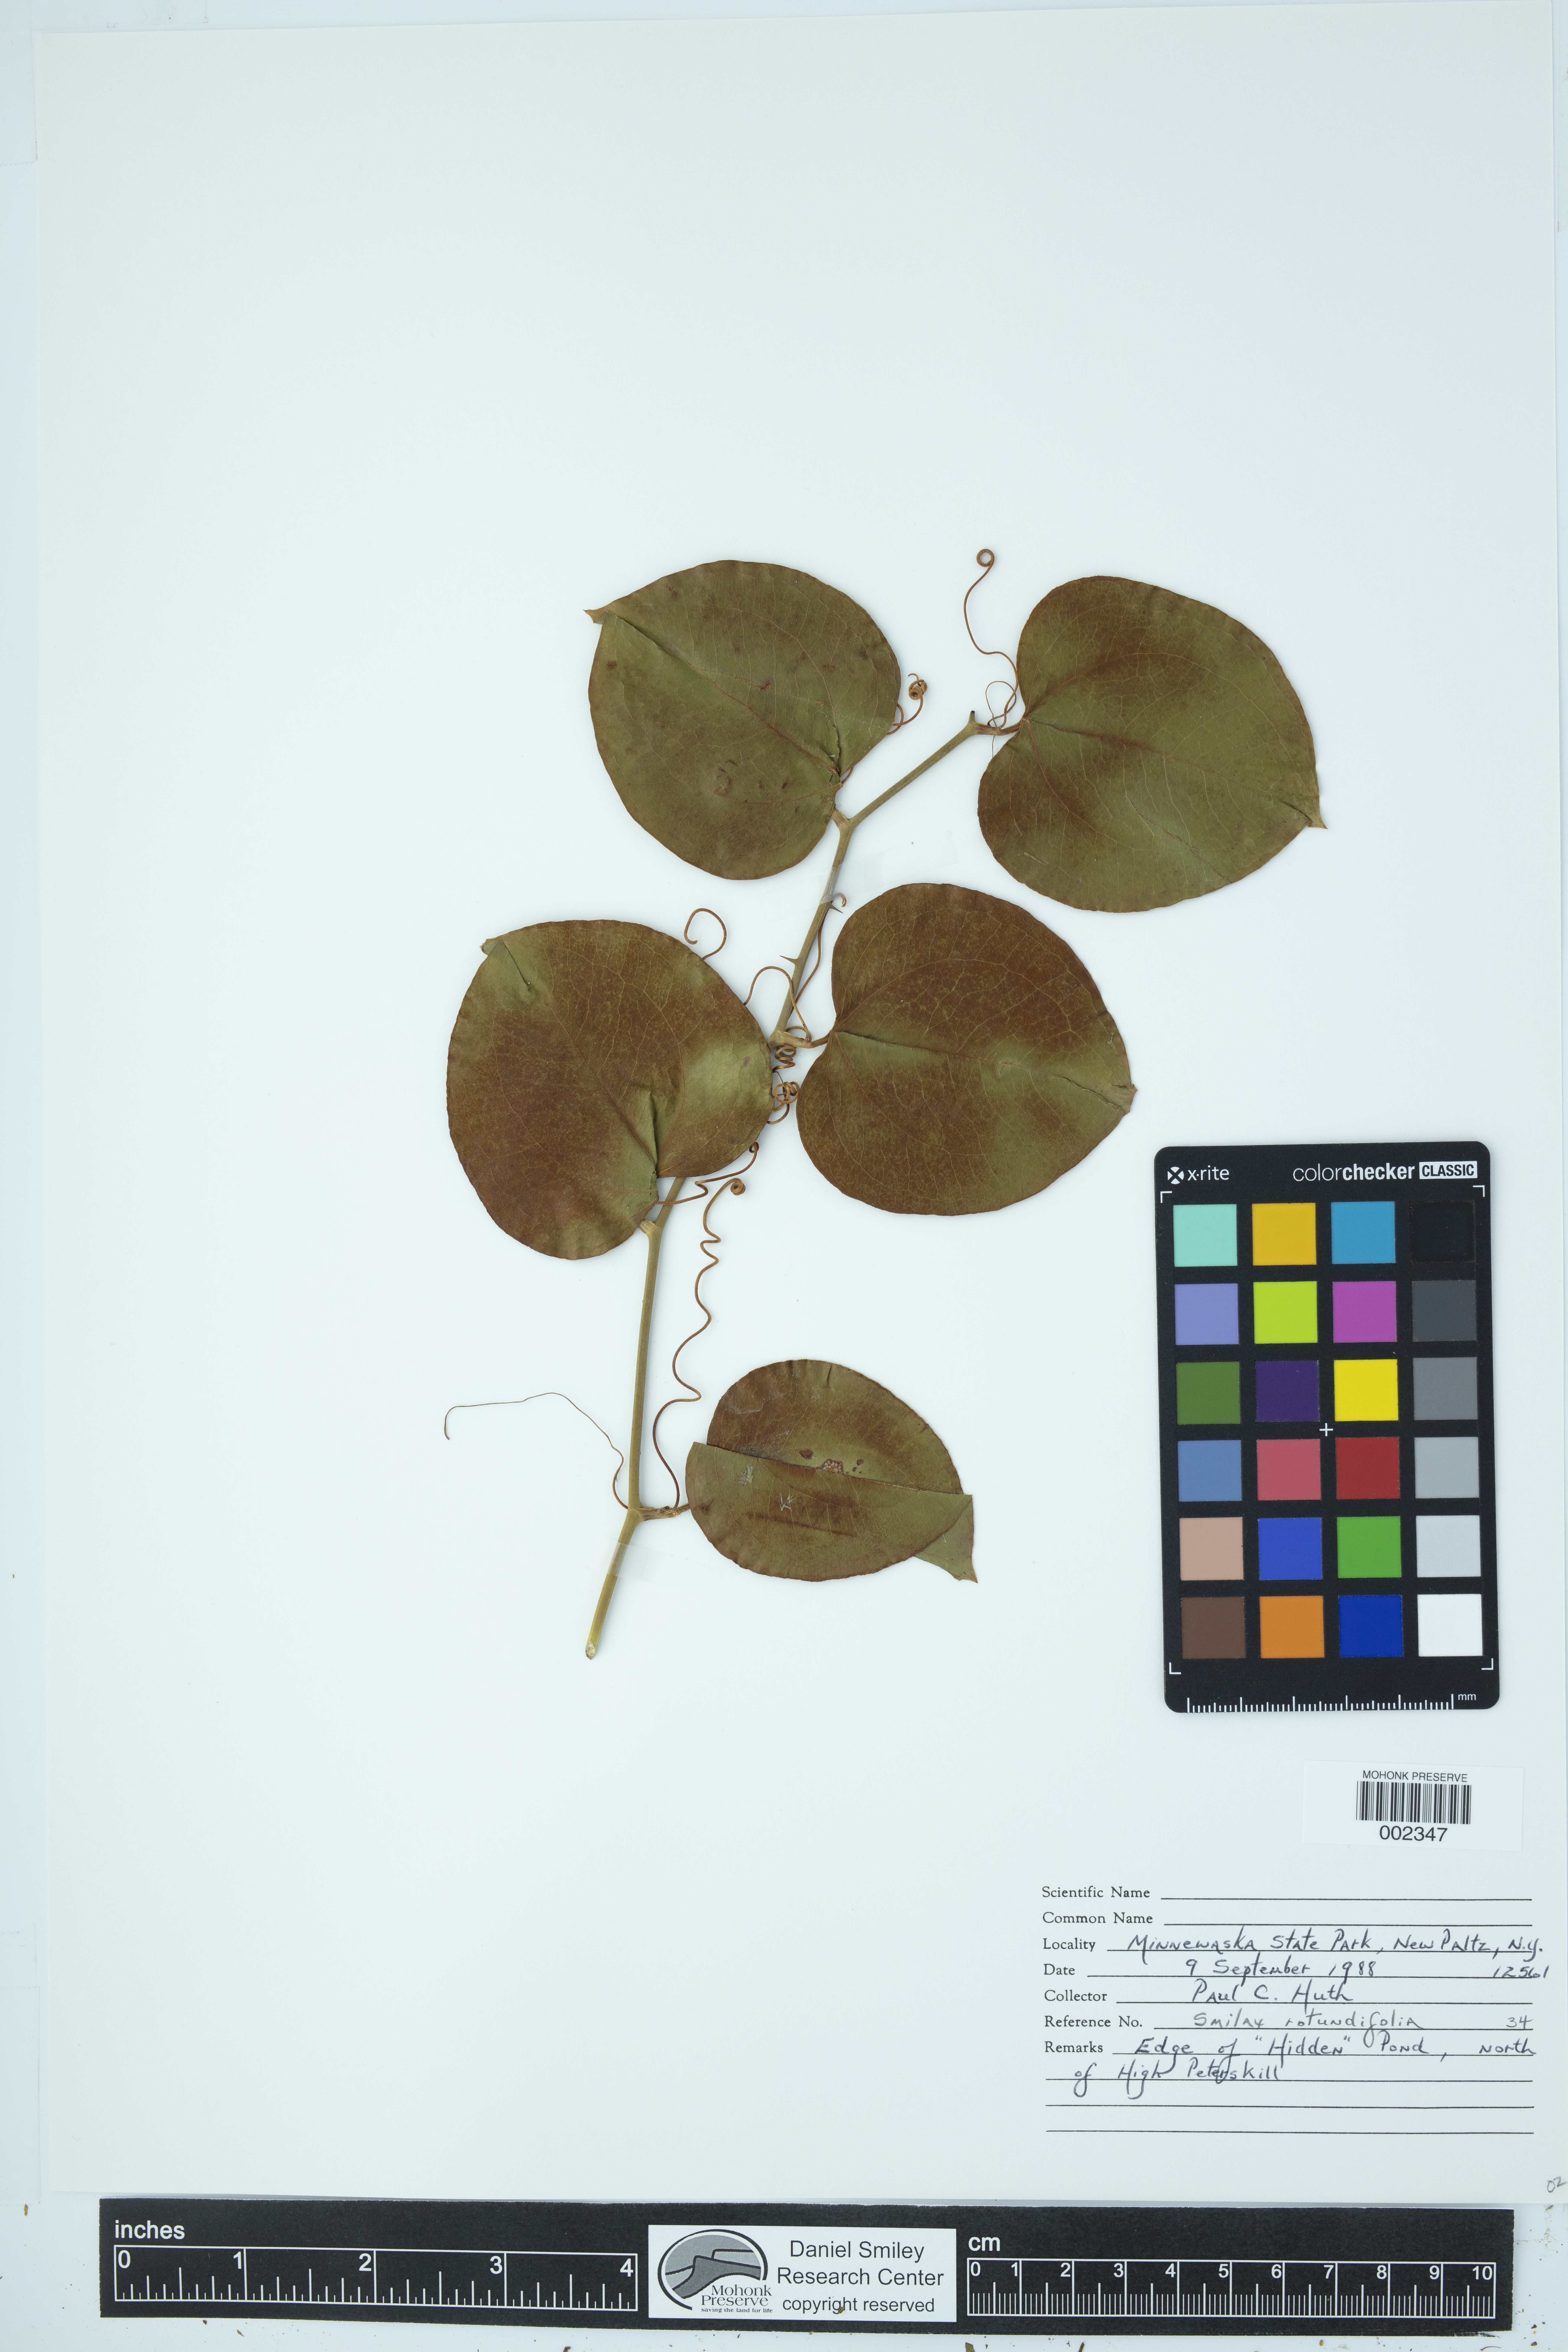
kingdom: Plantae
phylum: Tracheophyta
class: Liliopsida
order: Liliales
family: Smilacaceae
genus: Smilax
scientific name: Smilax rotundifolia
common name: Bullbriar
